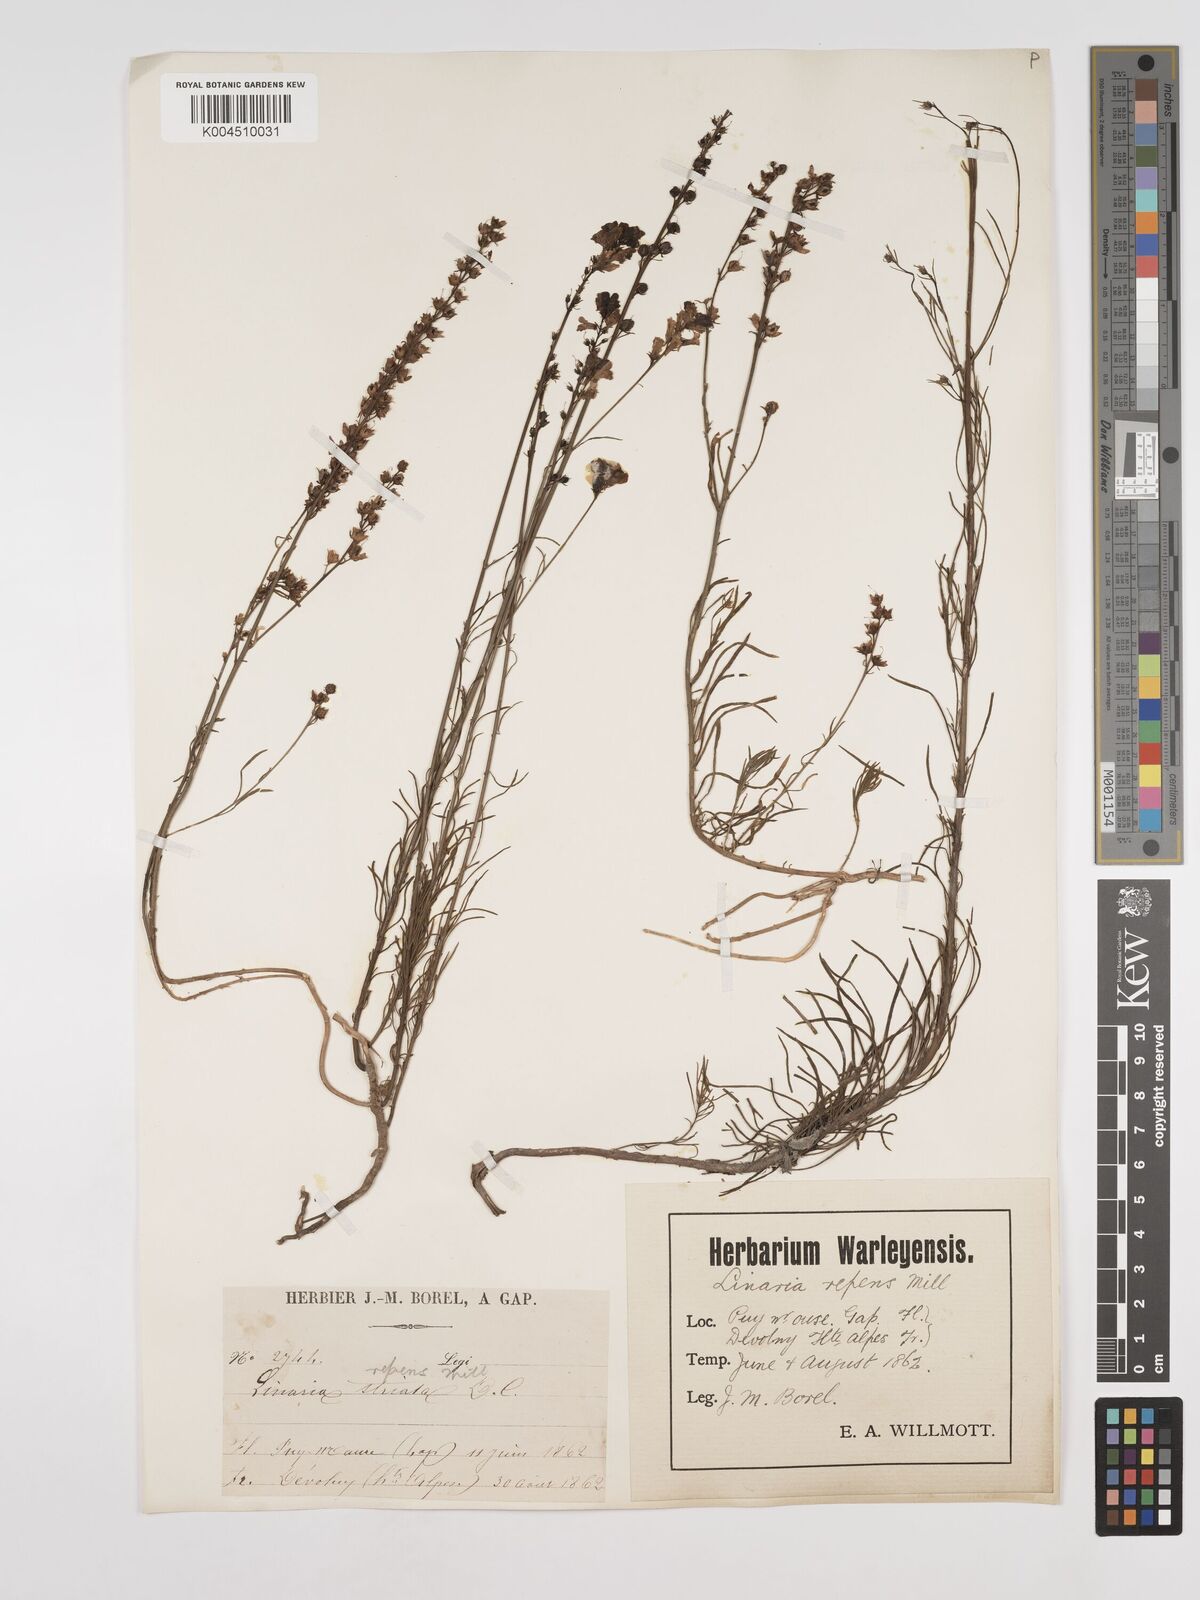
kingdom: Plantae
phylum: Tracheophyta
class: Magnoliopsida
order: Lamiales
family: Plantaginaceae
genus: Linaria
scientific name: Linaria repens
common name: Pale toadflax
